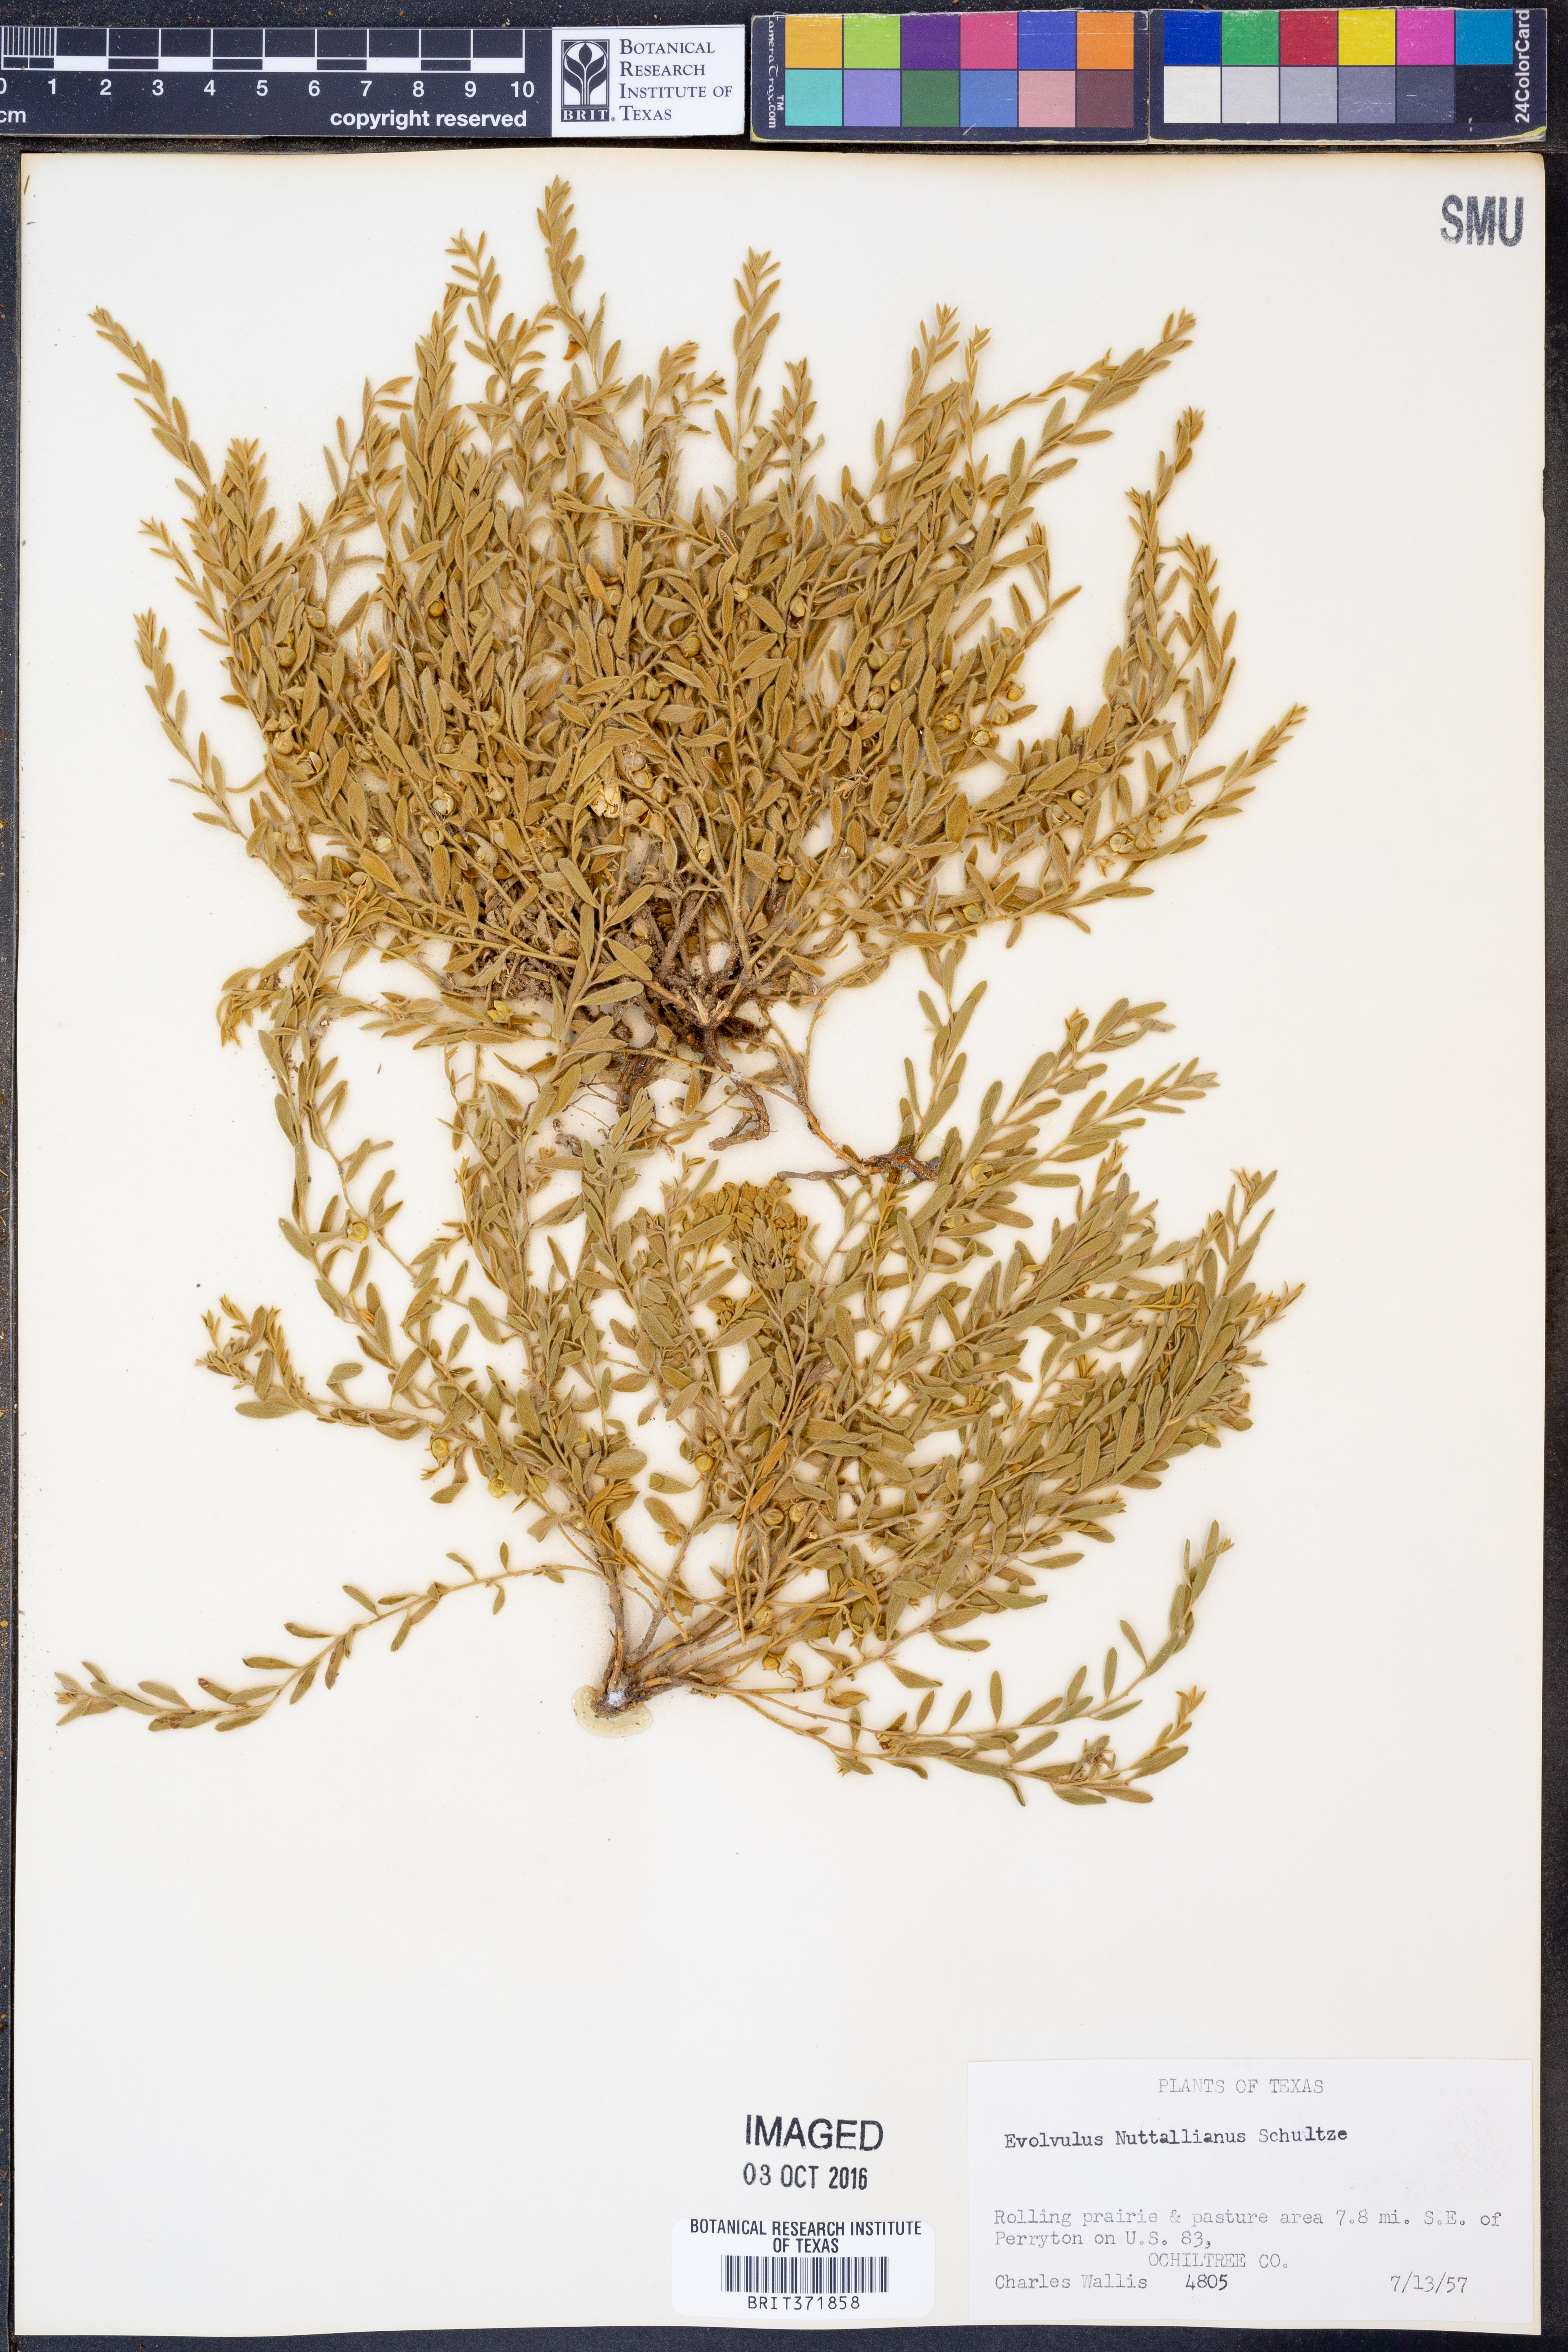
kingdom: Plantae
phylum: Tracheophyta
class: Magnoliopsida
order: Solanales
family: Convolvulaceae
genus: Evolvulus
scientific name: Evolvulus nuttallianus
